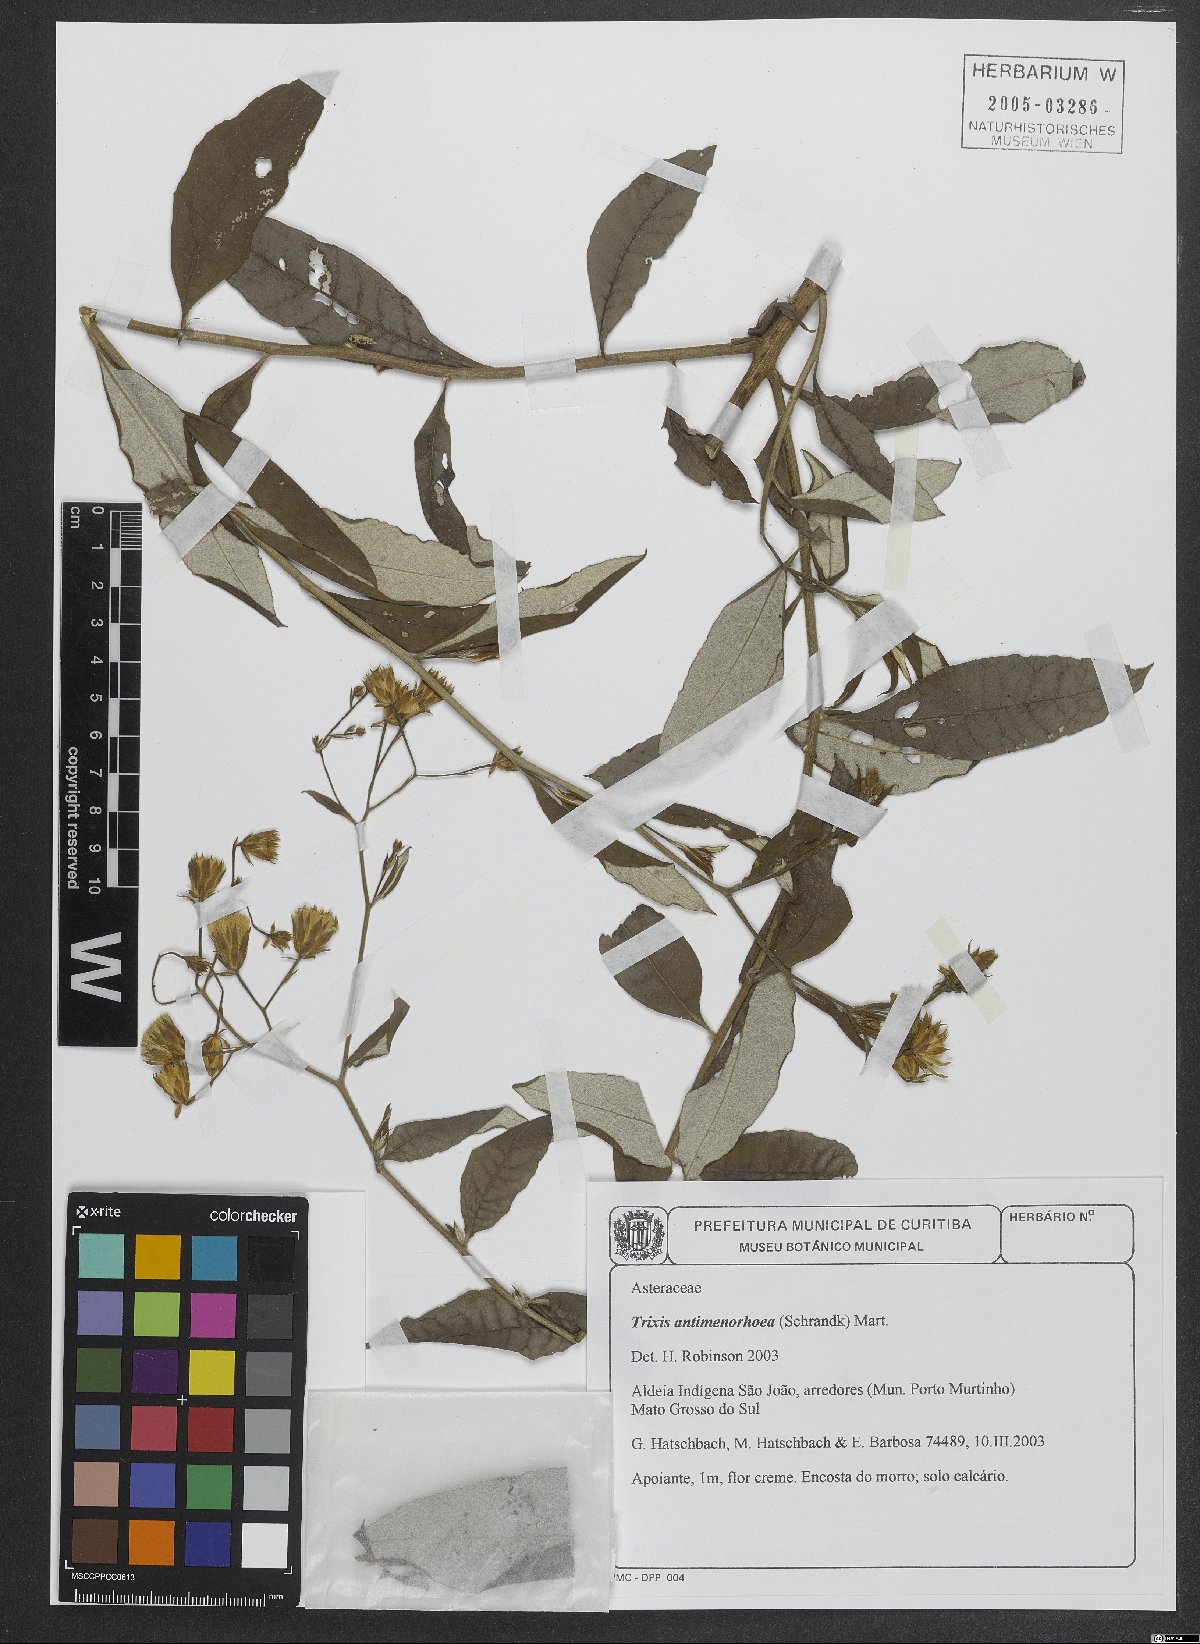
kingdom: Plantae
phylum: Tracheophyta
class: Magnoliopsida
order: Asterales
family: Asteraceae
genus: Trixis
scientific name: Trixis divaricata
